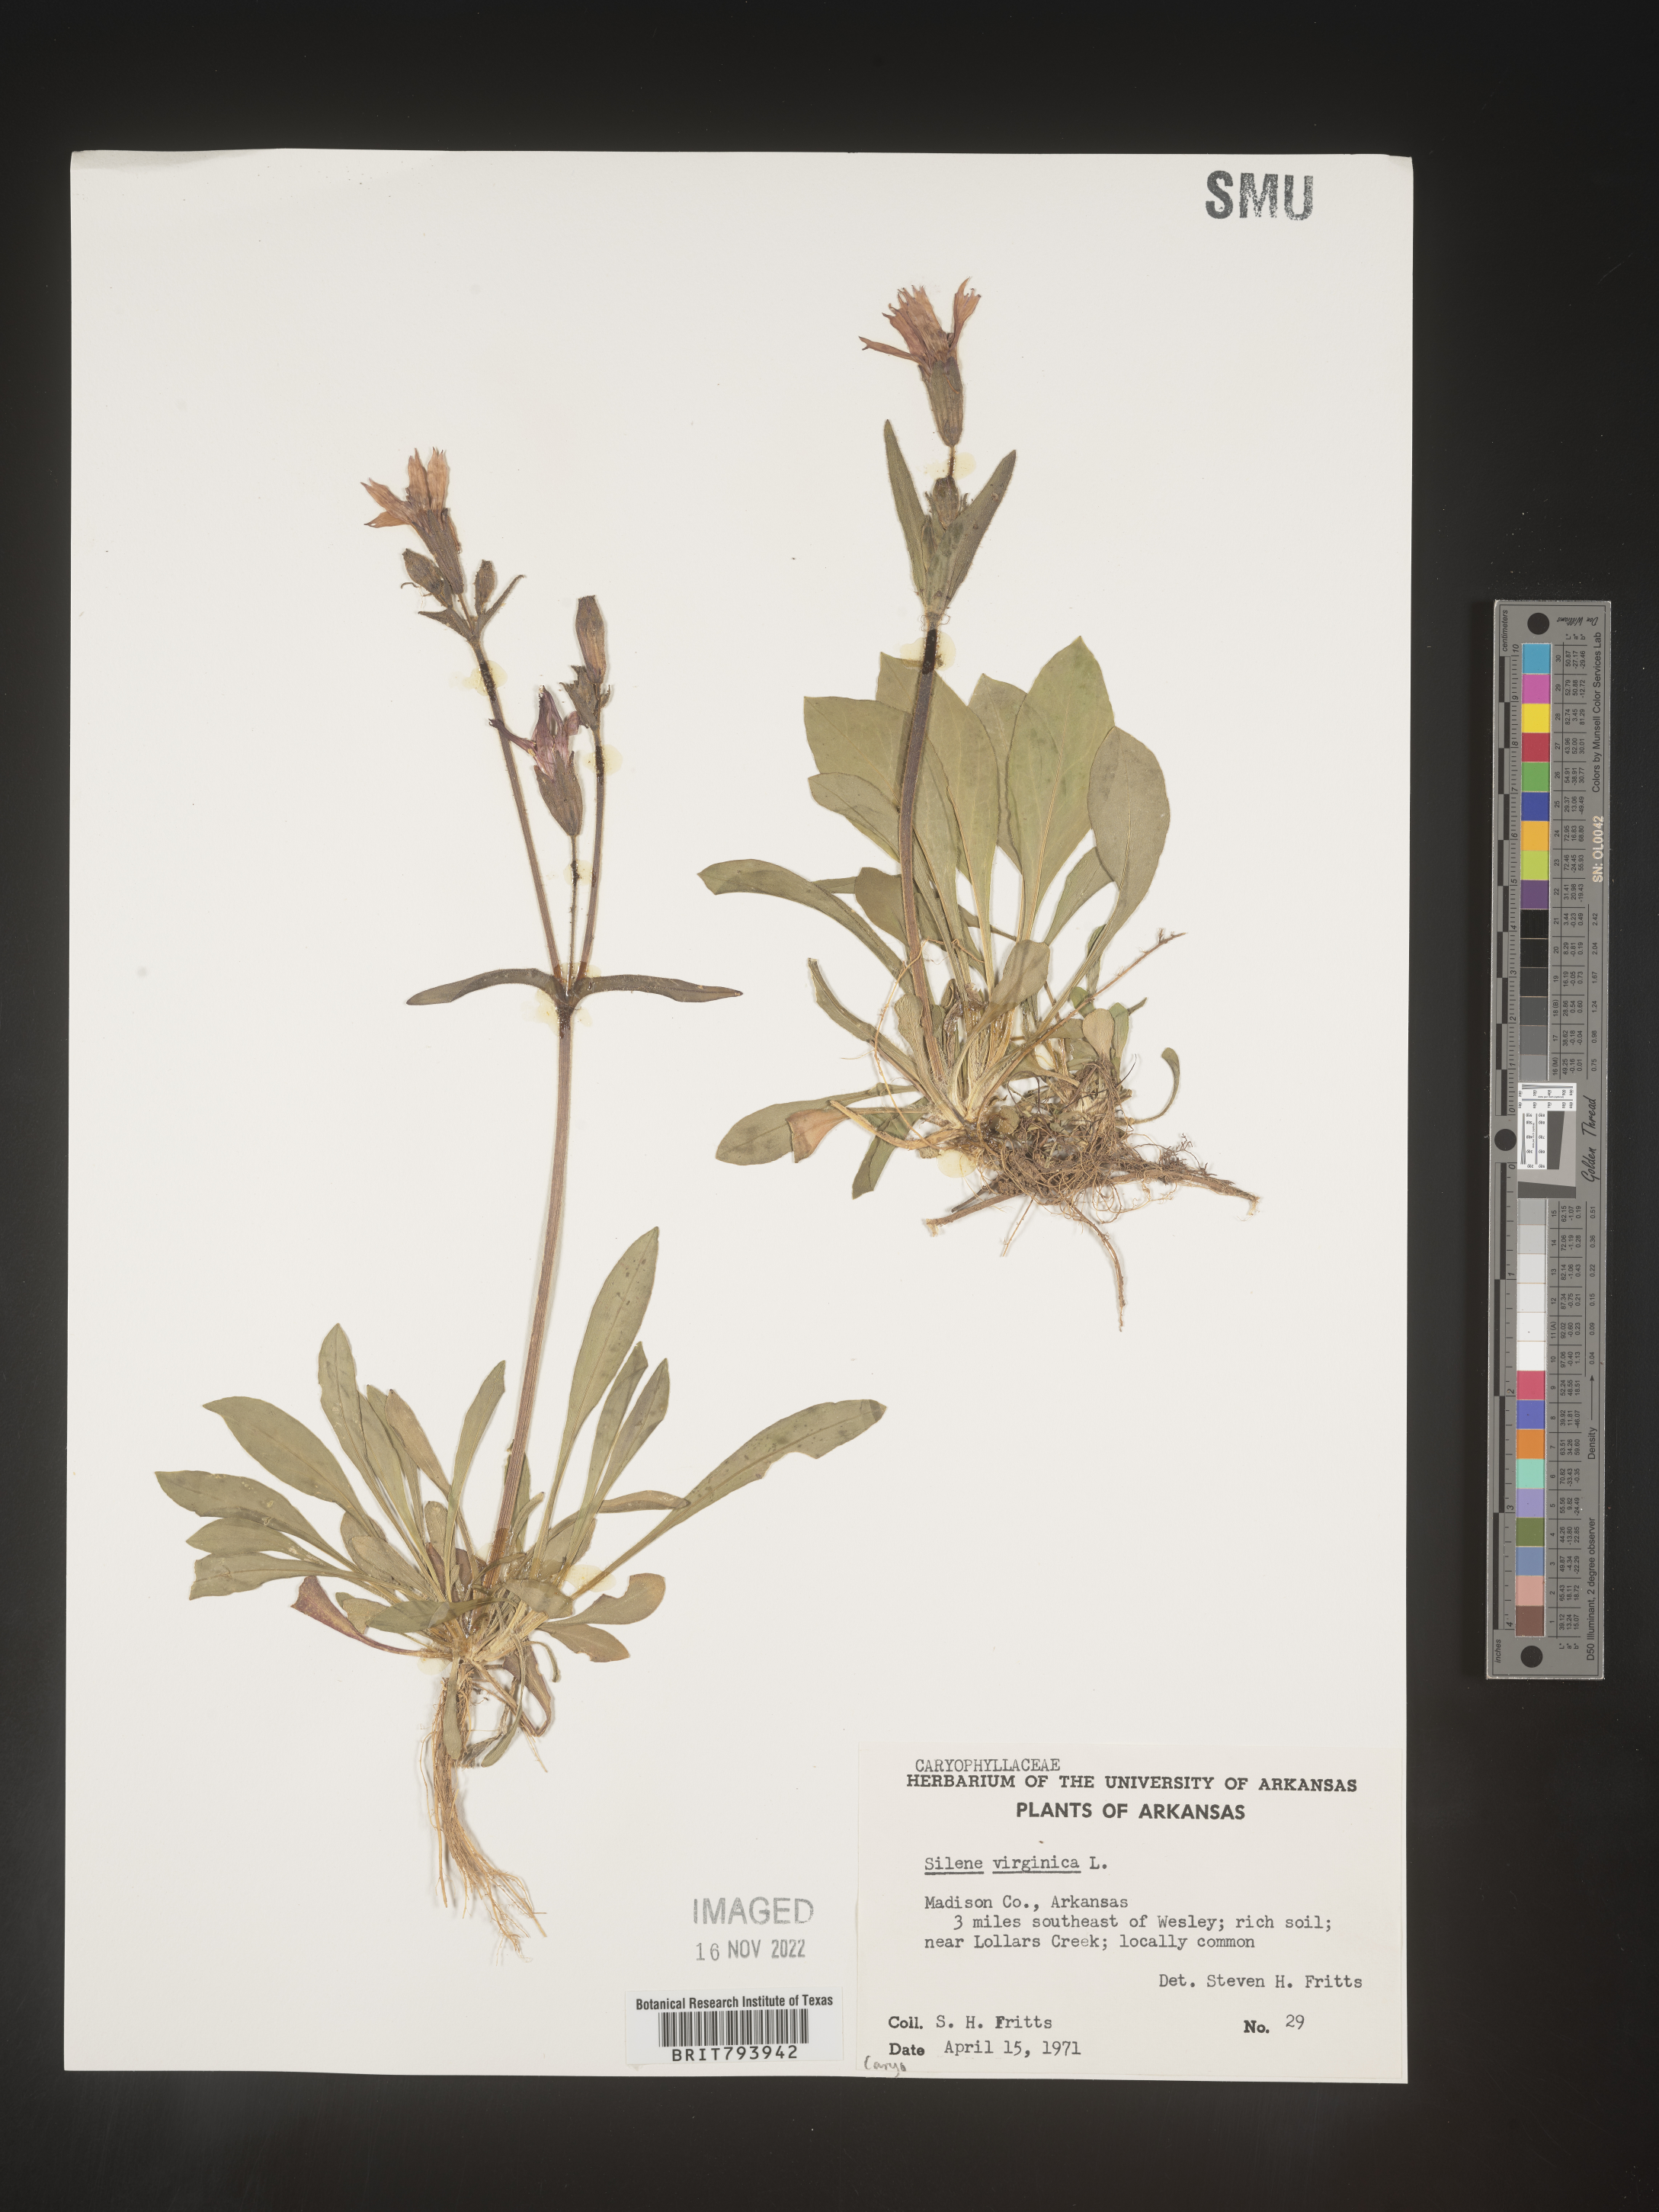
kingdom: Plantae
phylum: Tracheophyta
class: Magnoliopsida
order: Caryophyllales
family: Caryophyllaceae
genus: Silene
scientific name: Silene virginica
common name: Fire-pink
